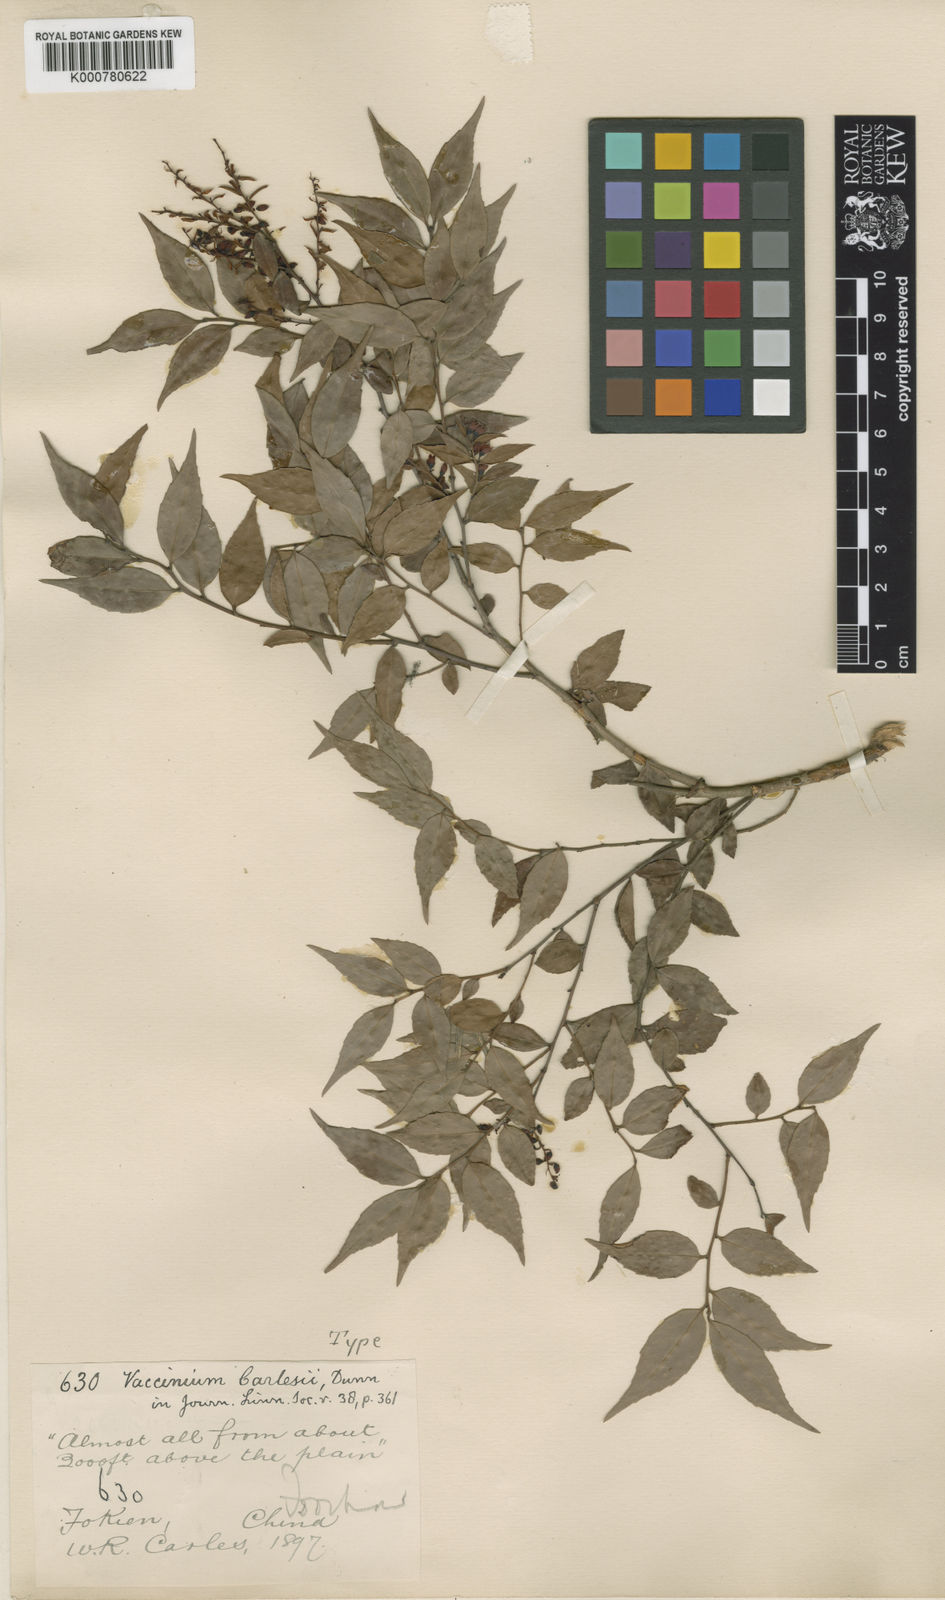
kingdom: Plantae
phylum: Tracheophyta
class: Magnoliopsida
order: Ericales
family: Ericaceae
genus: Vaccinium
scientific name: Vaccinium carlesii
